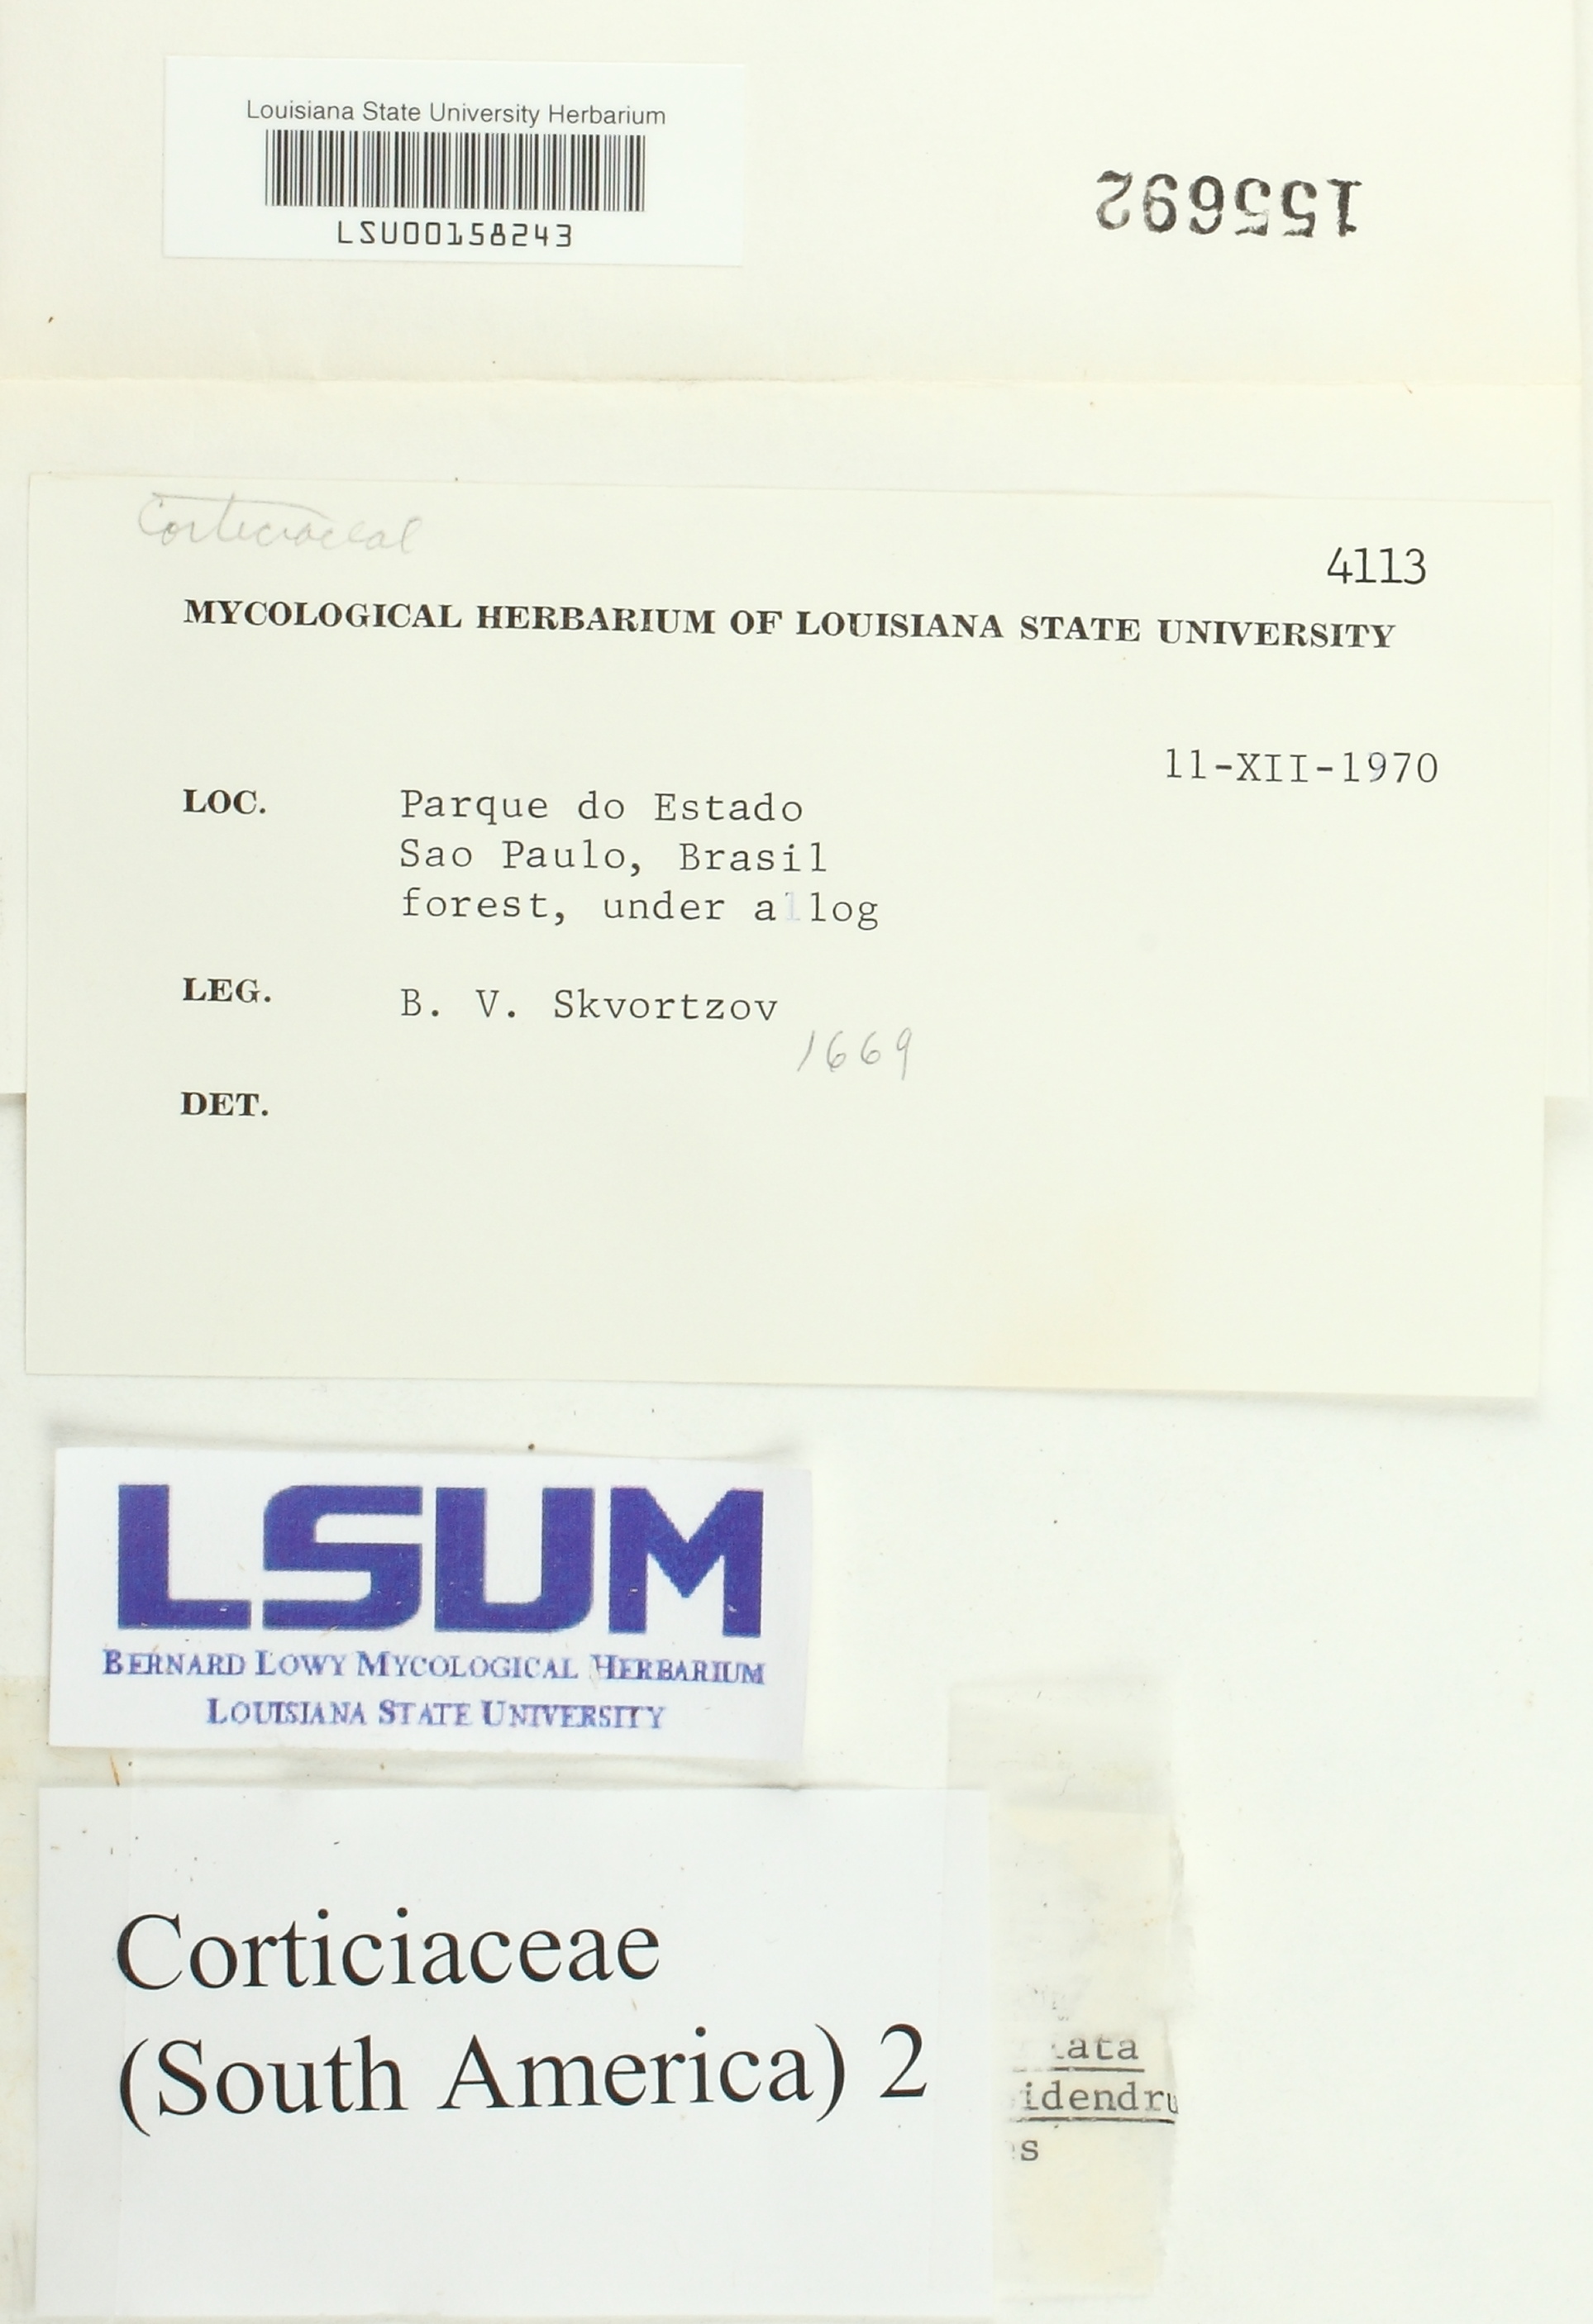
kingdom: Fungi
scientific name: Fungi
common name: Fungi
